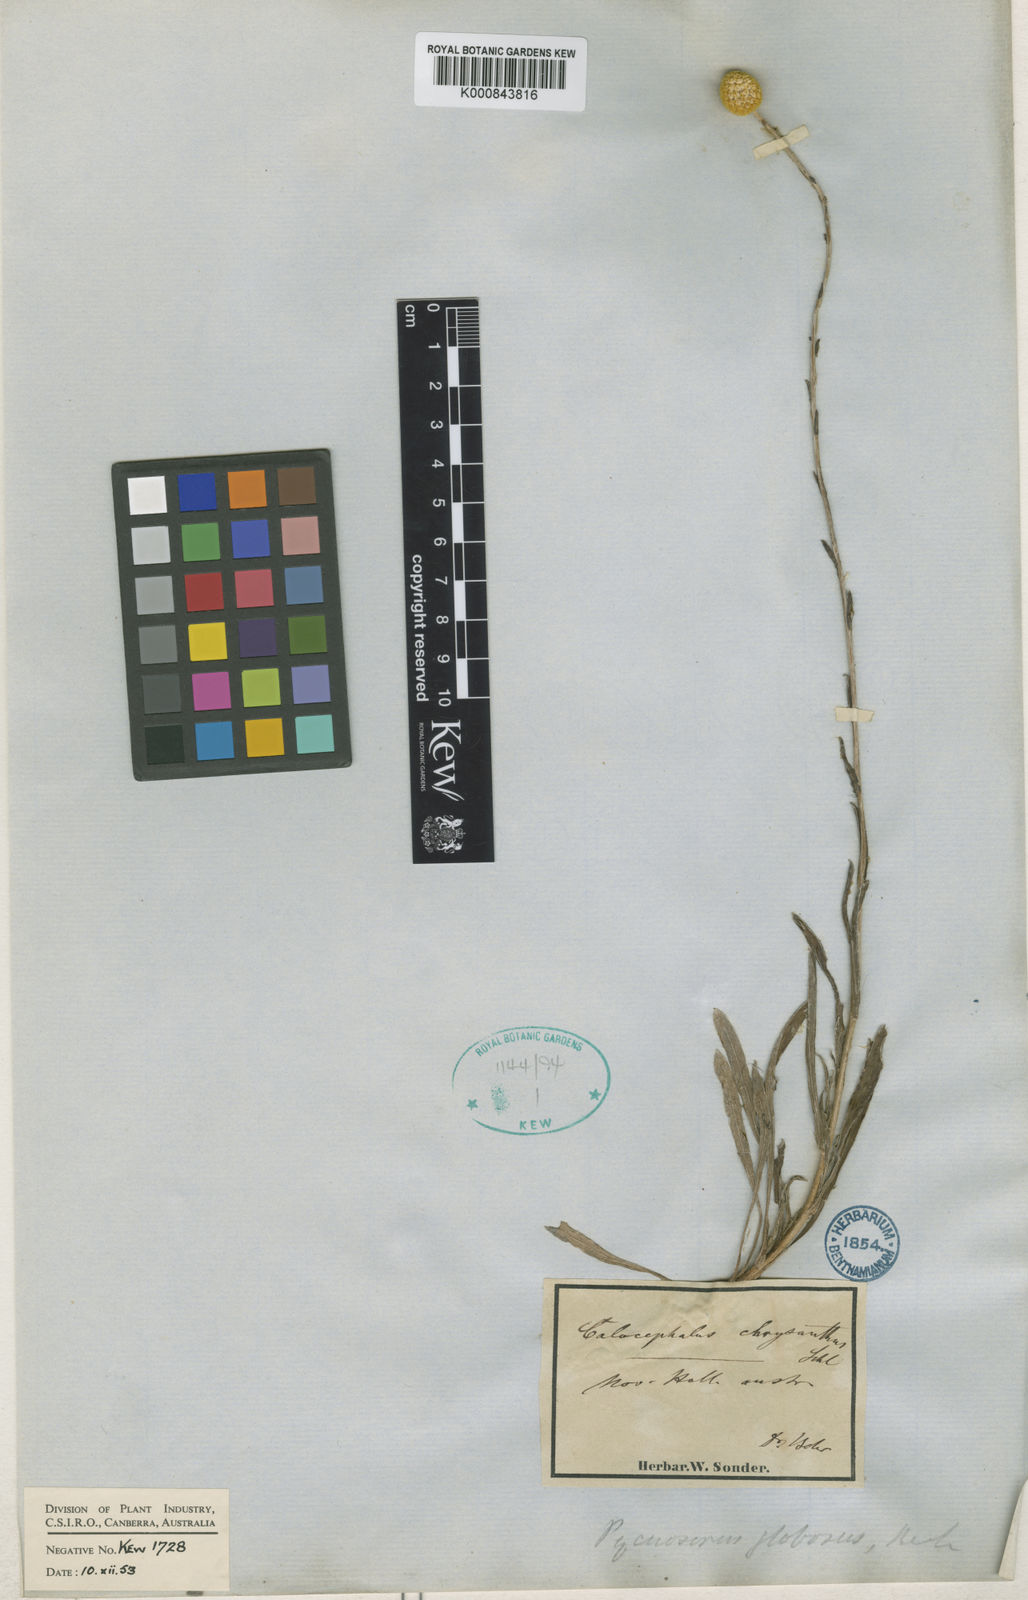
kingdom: Plantae
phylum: Tracheophyta
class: Magnoliopsida
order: Asterales
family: Asteraceae
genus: Pycnosorus
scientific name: Pycnosorus
